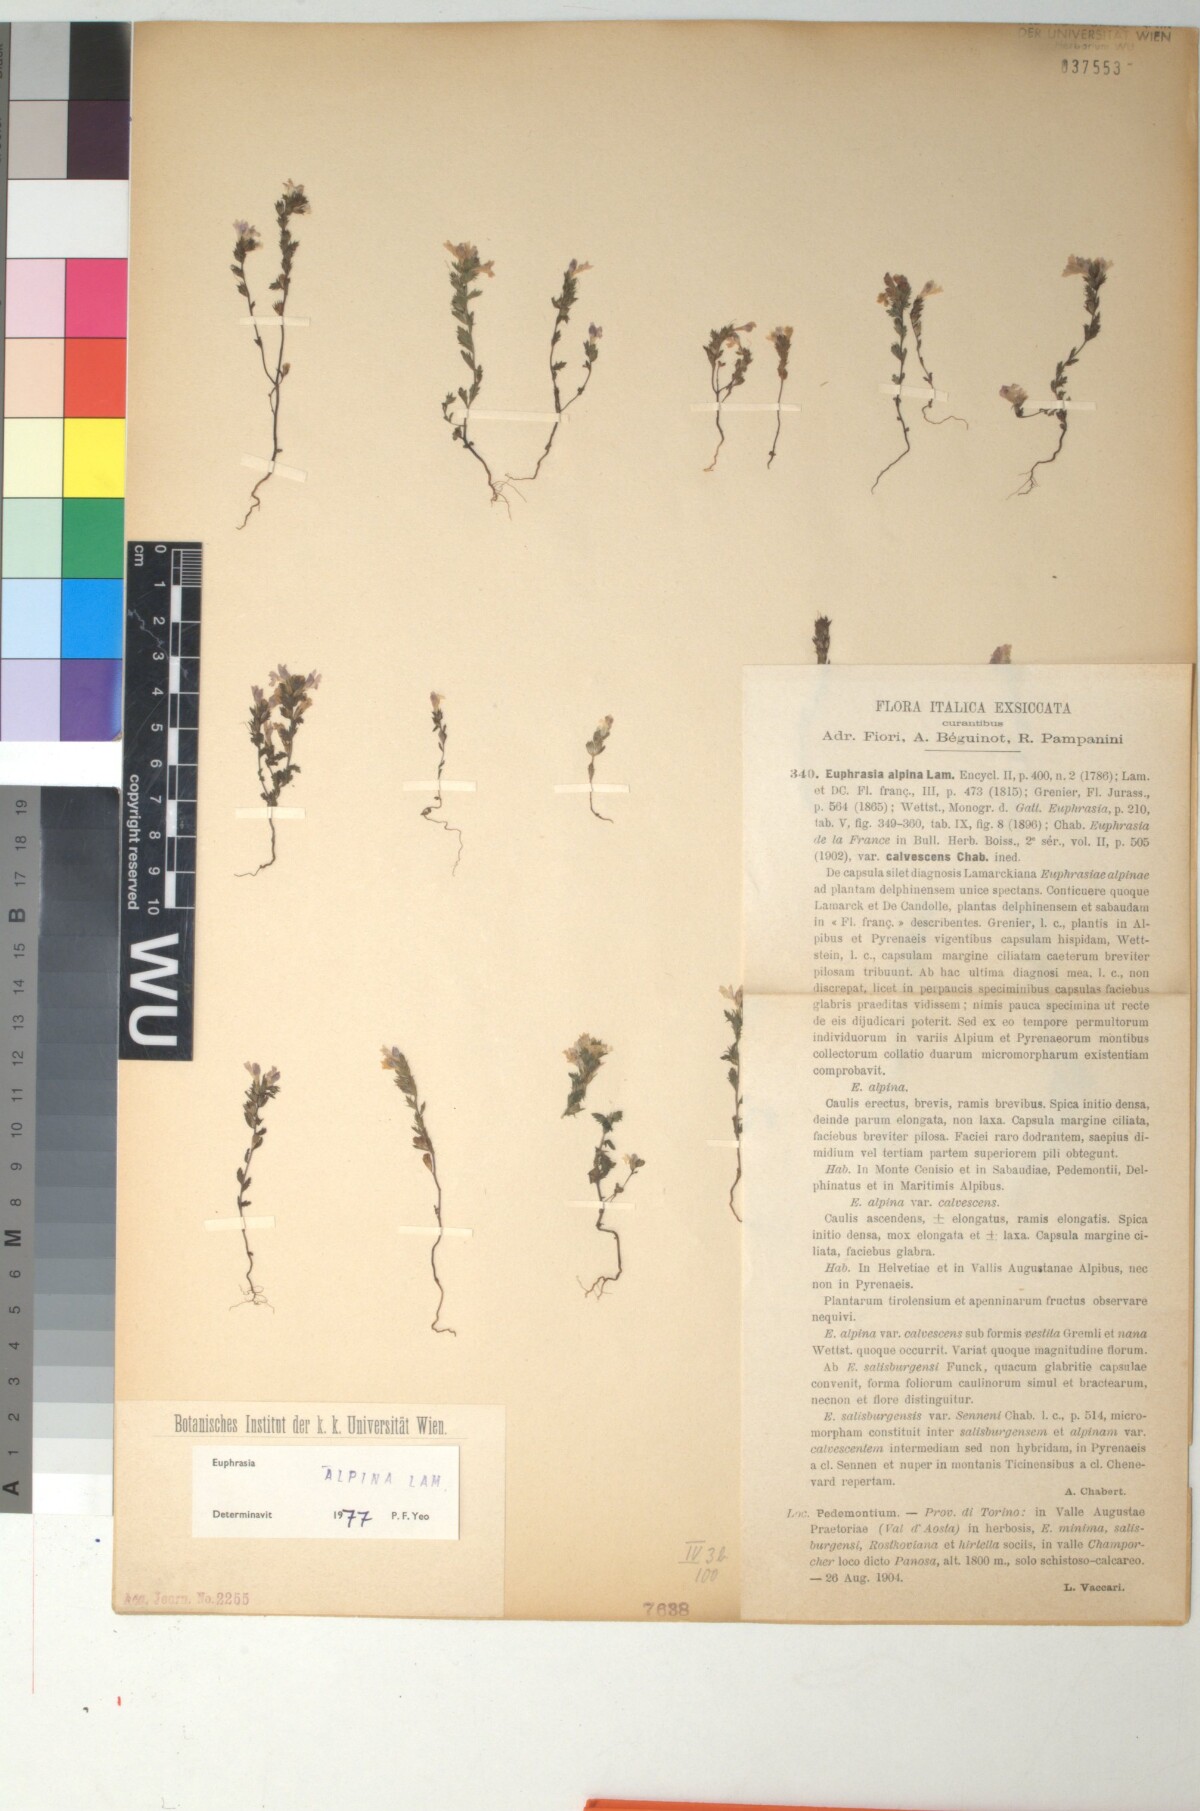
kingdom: Plantae
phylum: Tracheophyta
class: Magnoliopsida
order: Lamiales
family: Orobanchaceae
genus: Euphrasia
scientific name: Euphrasia alpina
